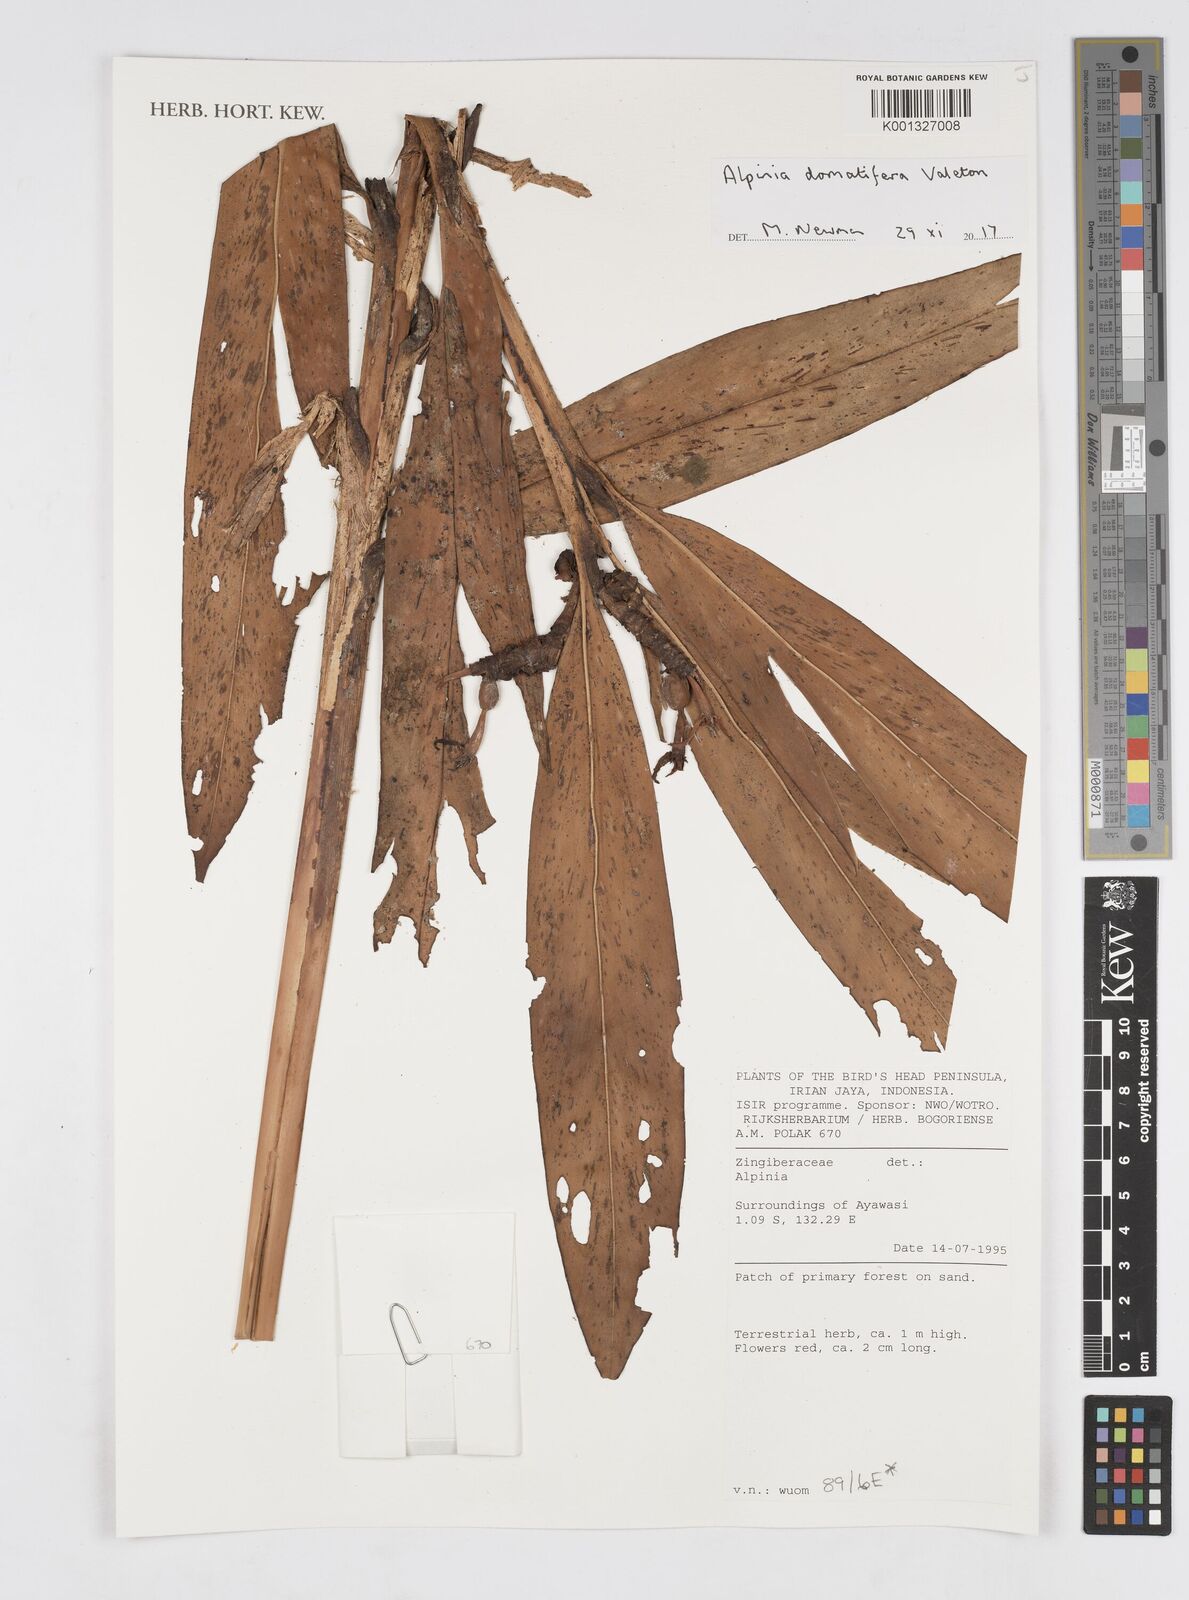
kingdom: Plantae
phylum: Tracheophyta
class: Liliopsida
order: Zingiberales
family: Zingiberaceae
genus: Alpinia
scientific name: Alpinia domatifera
